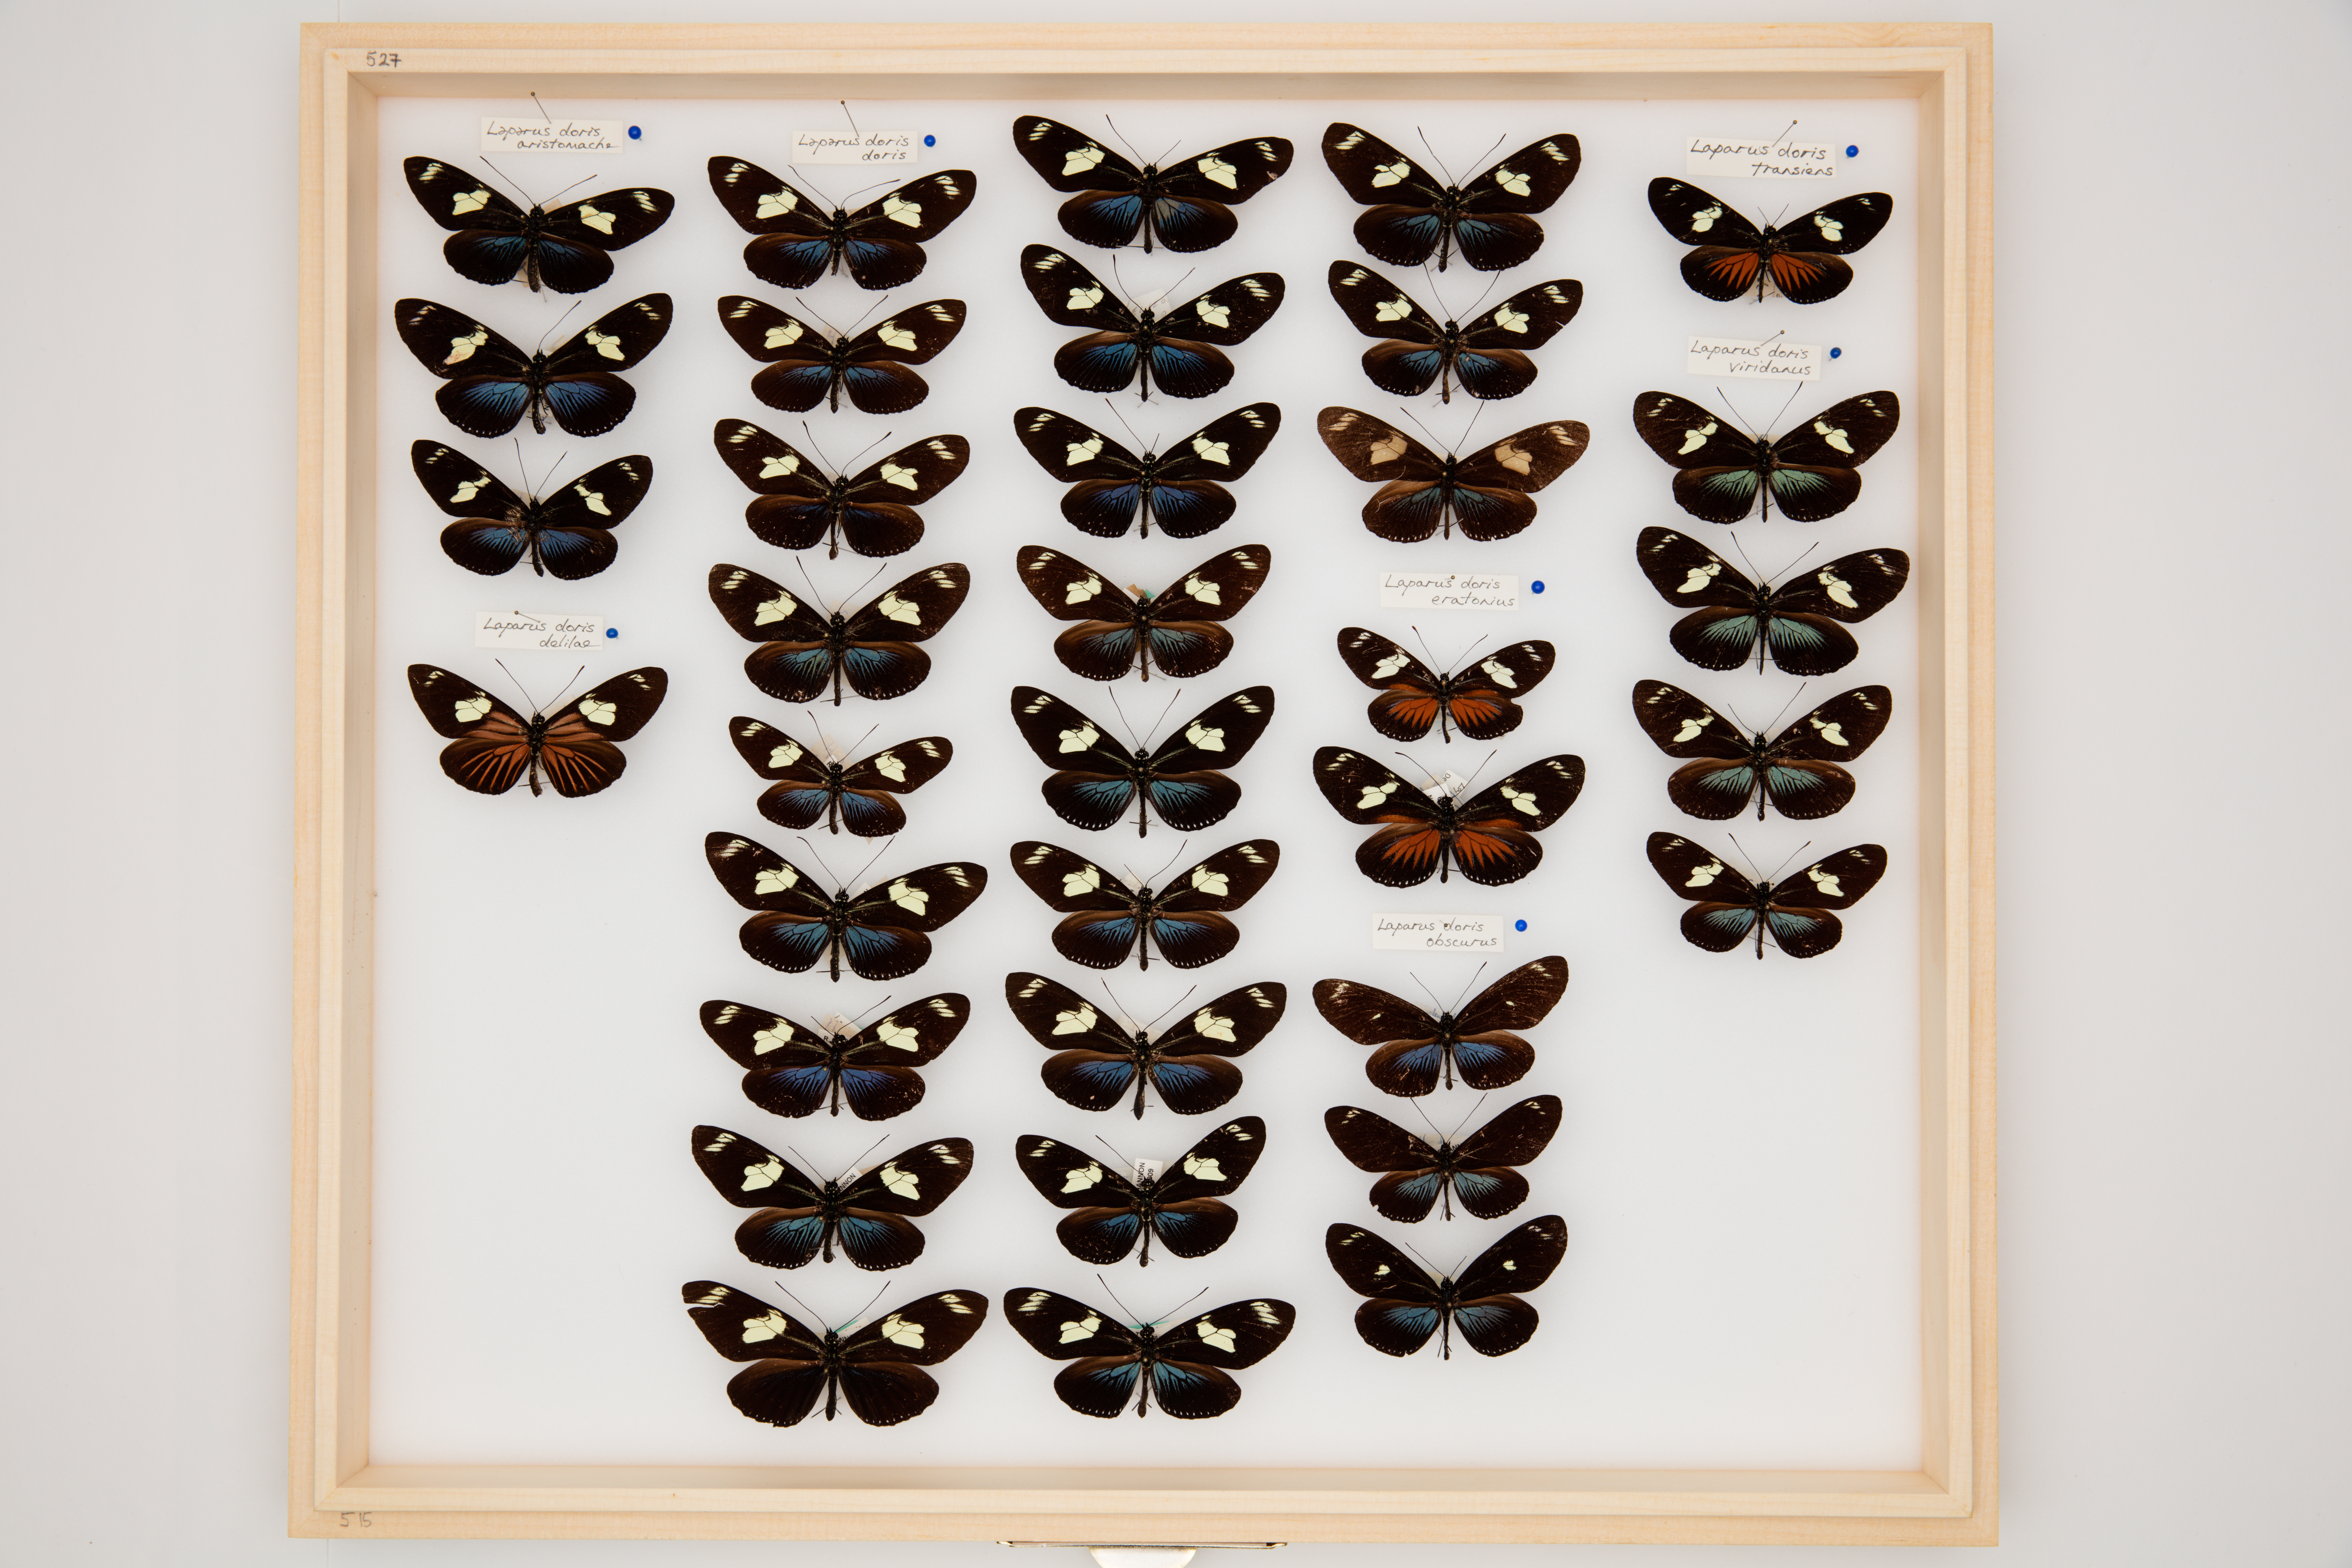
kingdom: Animalia
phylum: Arthropoda
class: Insecta
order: Lepidoptera
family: Nymphalidae
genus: Heliconius
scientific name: Heliconius Laparus doris
